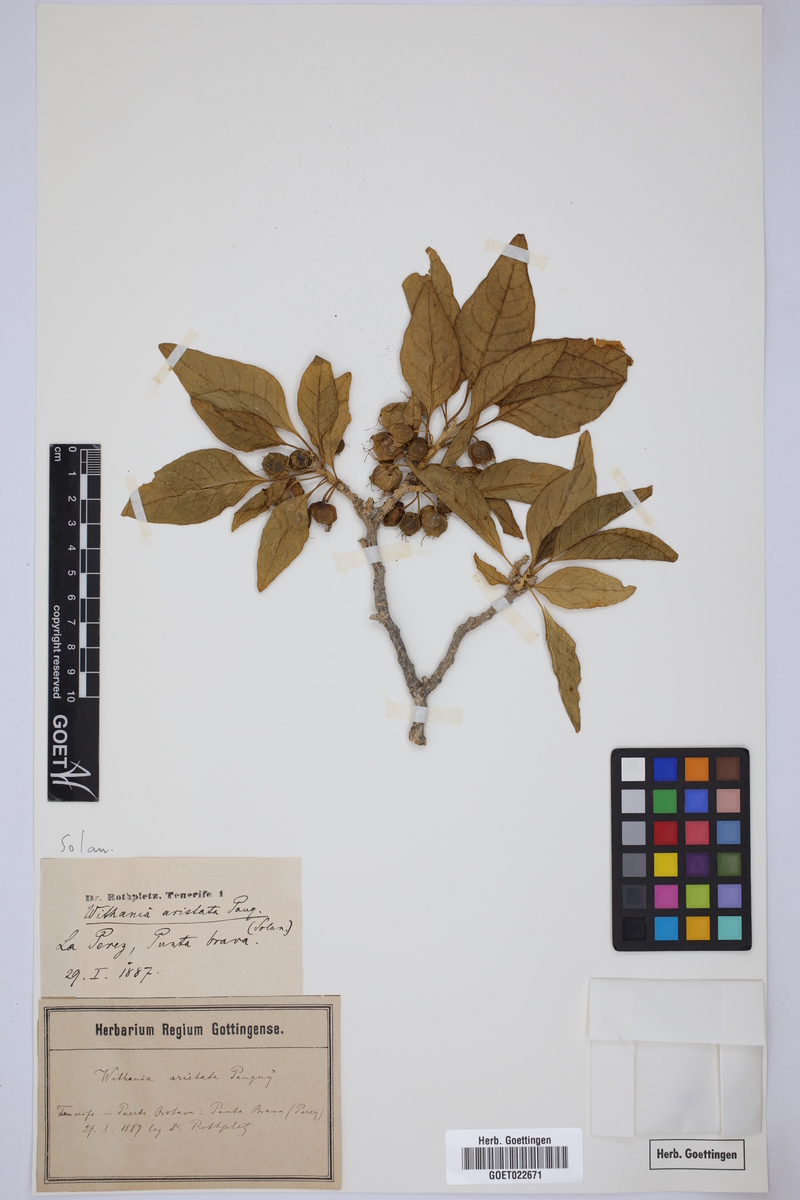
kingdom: Plantae
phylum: Tracheophyta
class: Magnoliopsida
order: Solanales
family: Solanaceae
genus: Withania
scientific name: Withania aristata
